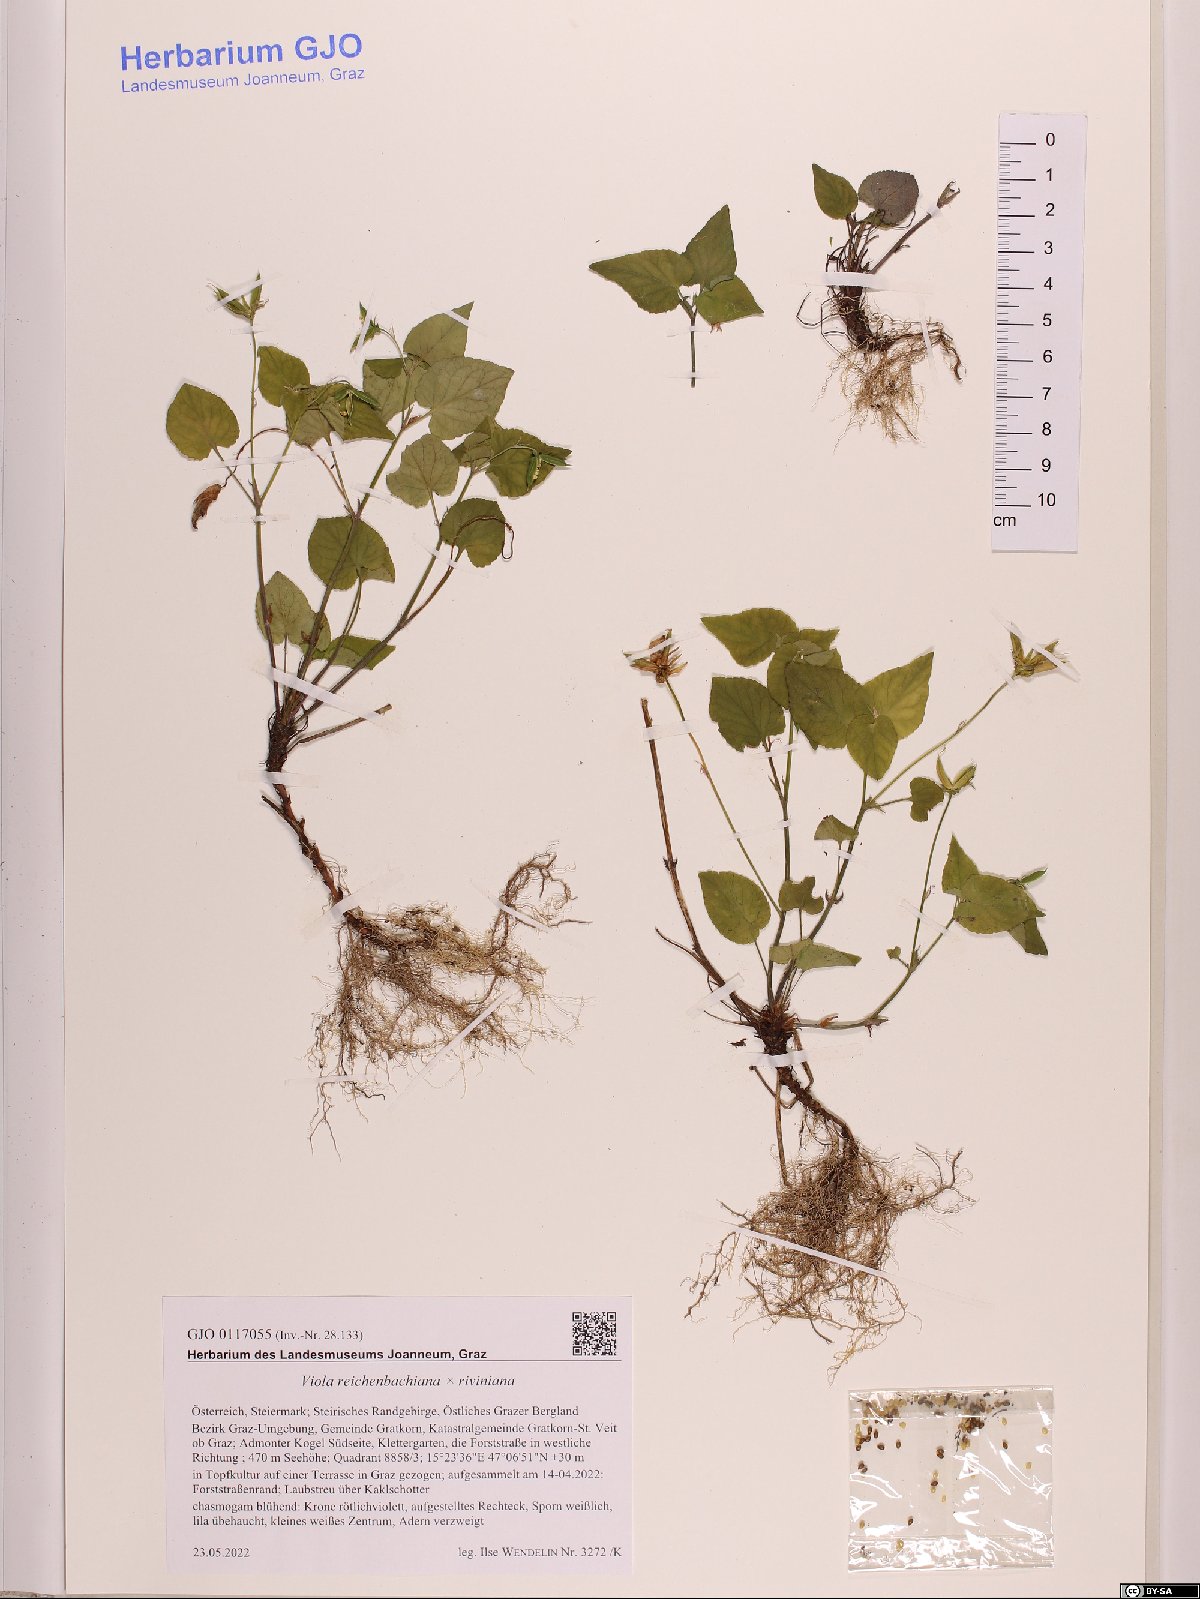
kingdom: Plantae
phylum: Tracheophyta
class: Magnoliopsida
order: Malpighiales
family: Violaceae
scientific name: Violaceae
